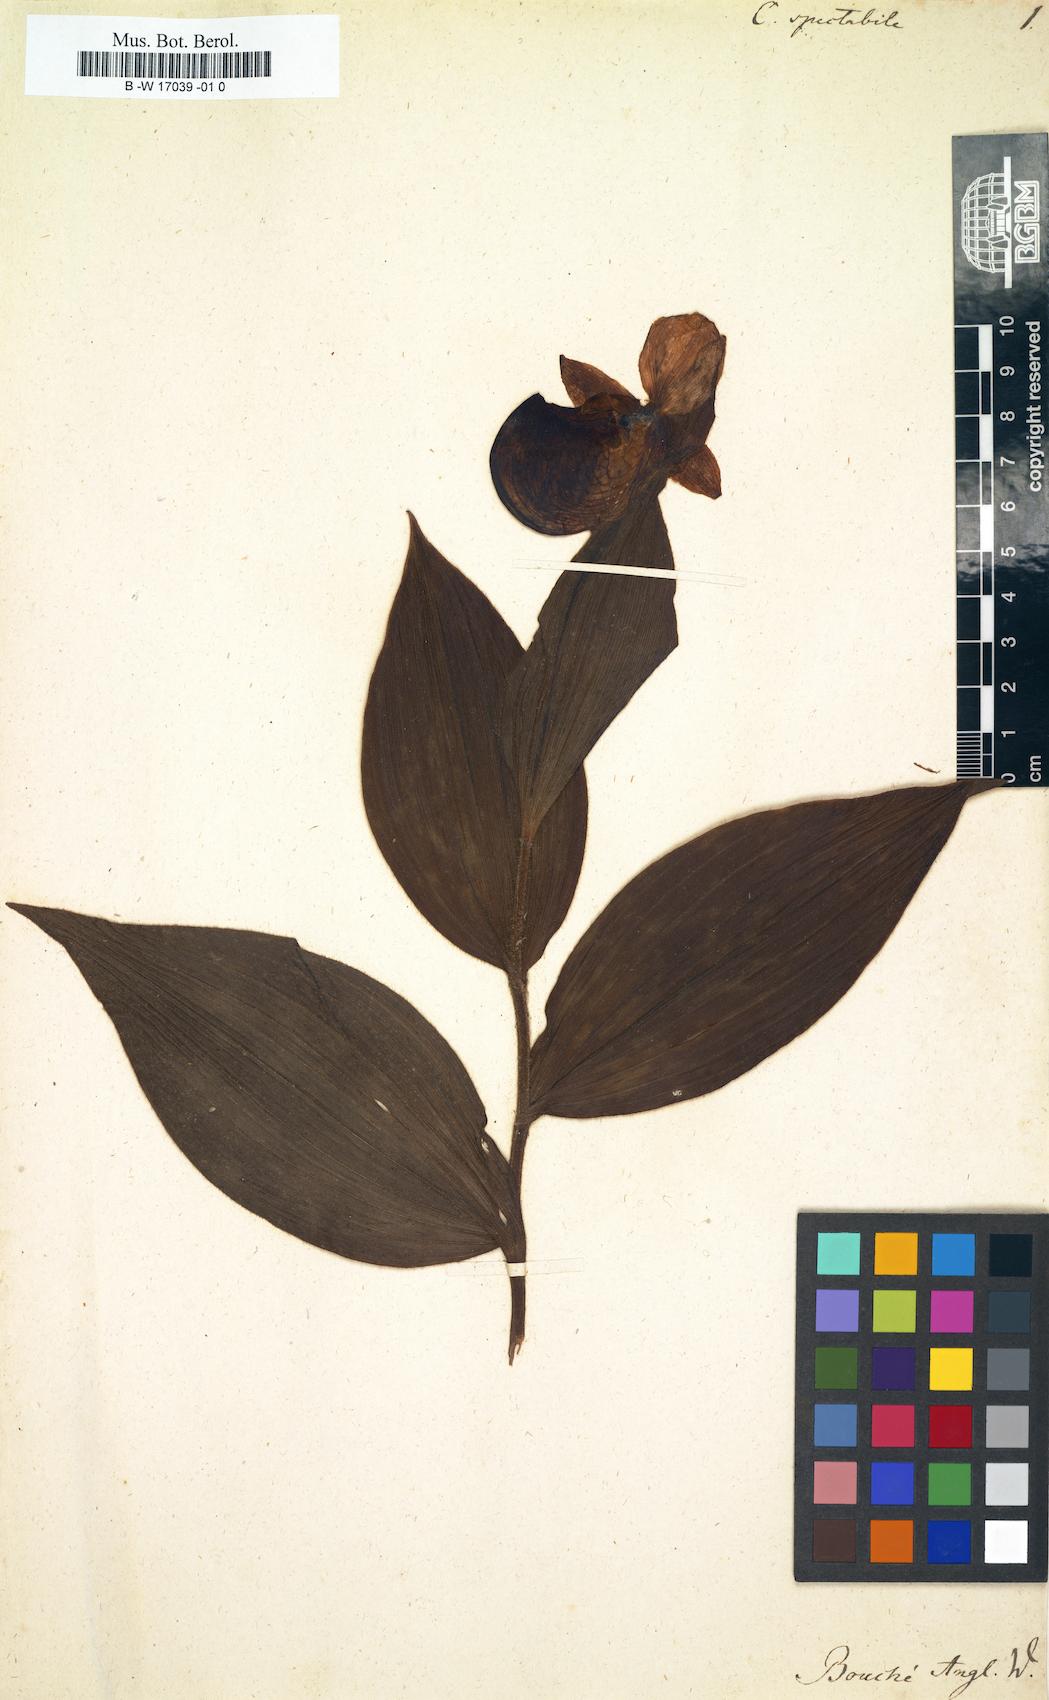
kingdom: Plantae
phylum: Tracheophyta
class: Liliopsida
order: Asparagales
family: Orchidaceae
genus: Cypripedium
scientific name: Cypripedium reginae
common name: Queen lady's-slipper
